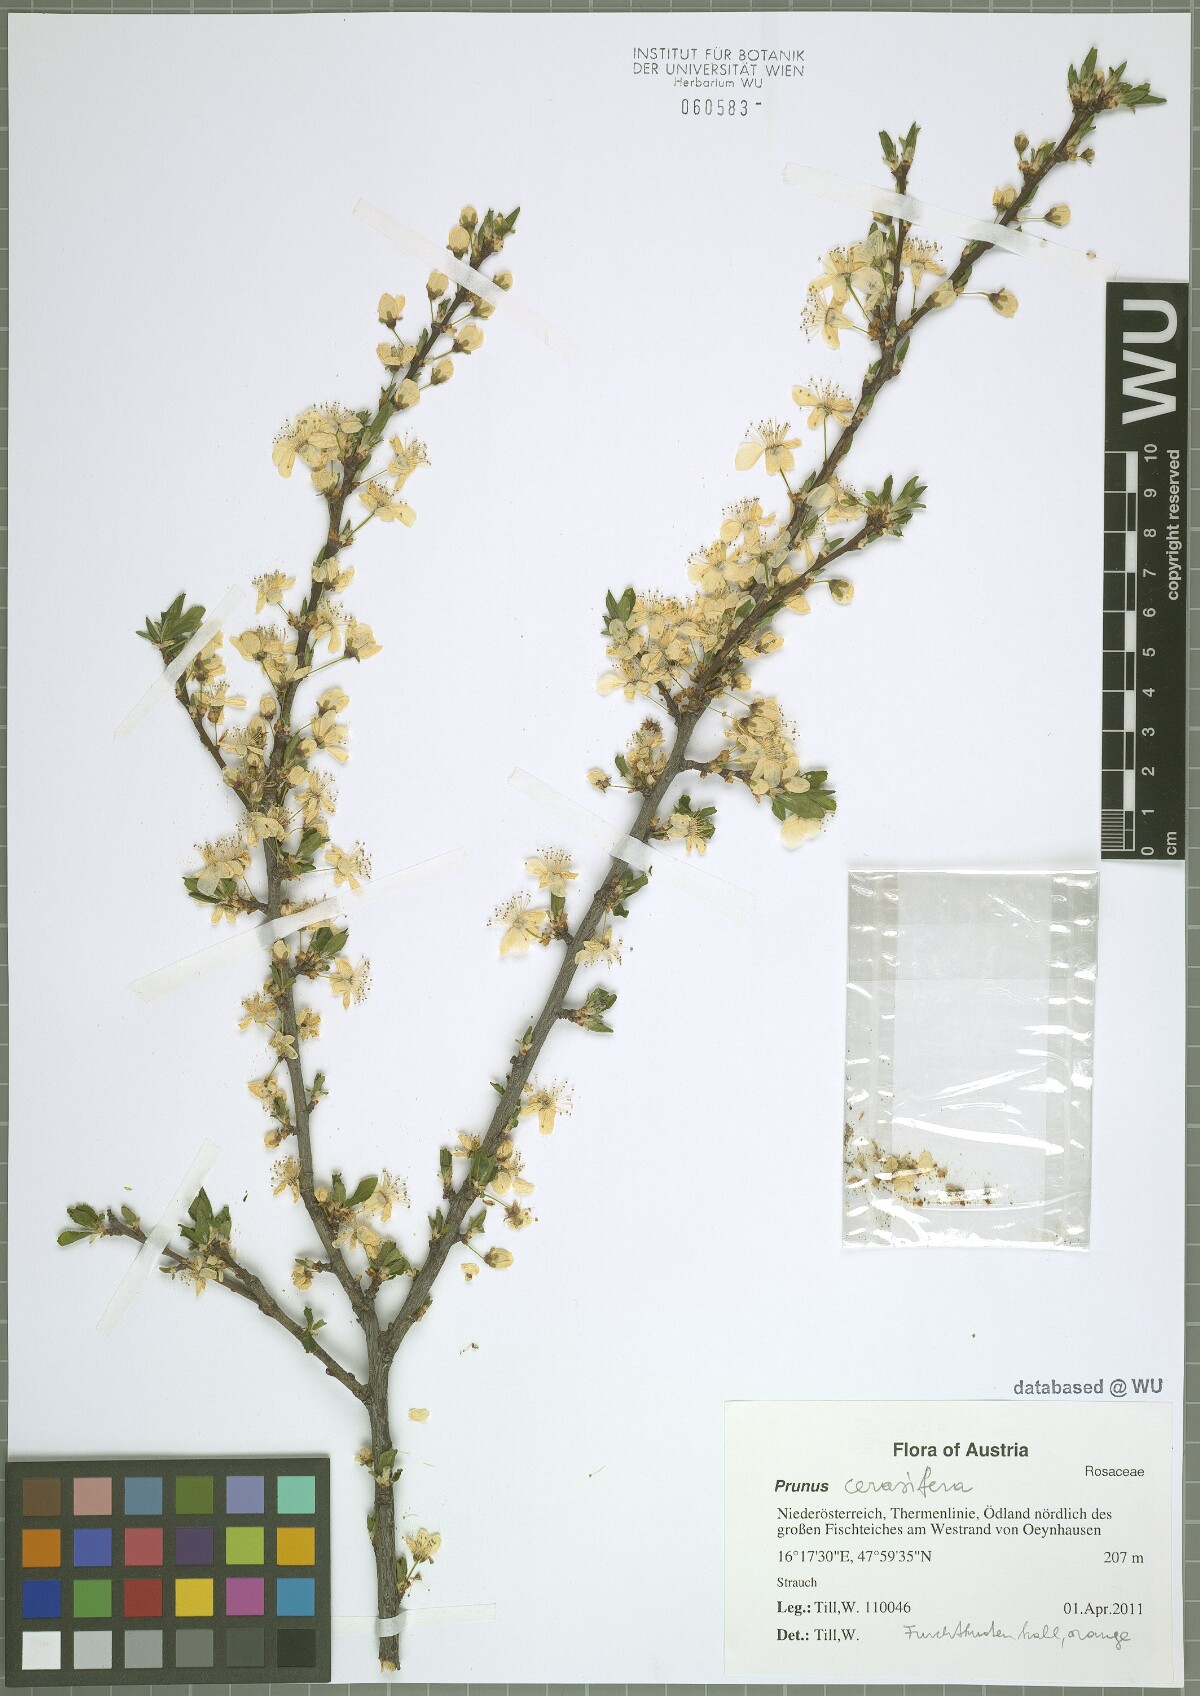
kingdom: Plantae
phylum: Tracheophyta
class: Magnoliopsida
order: Rosales
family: Rosaceae
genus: Prunus
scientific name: Prunus cerasifera
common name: Cherry plum
